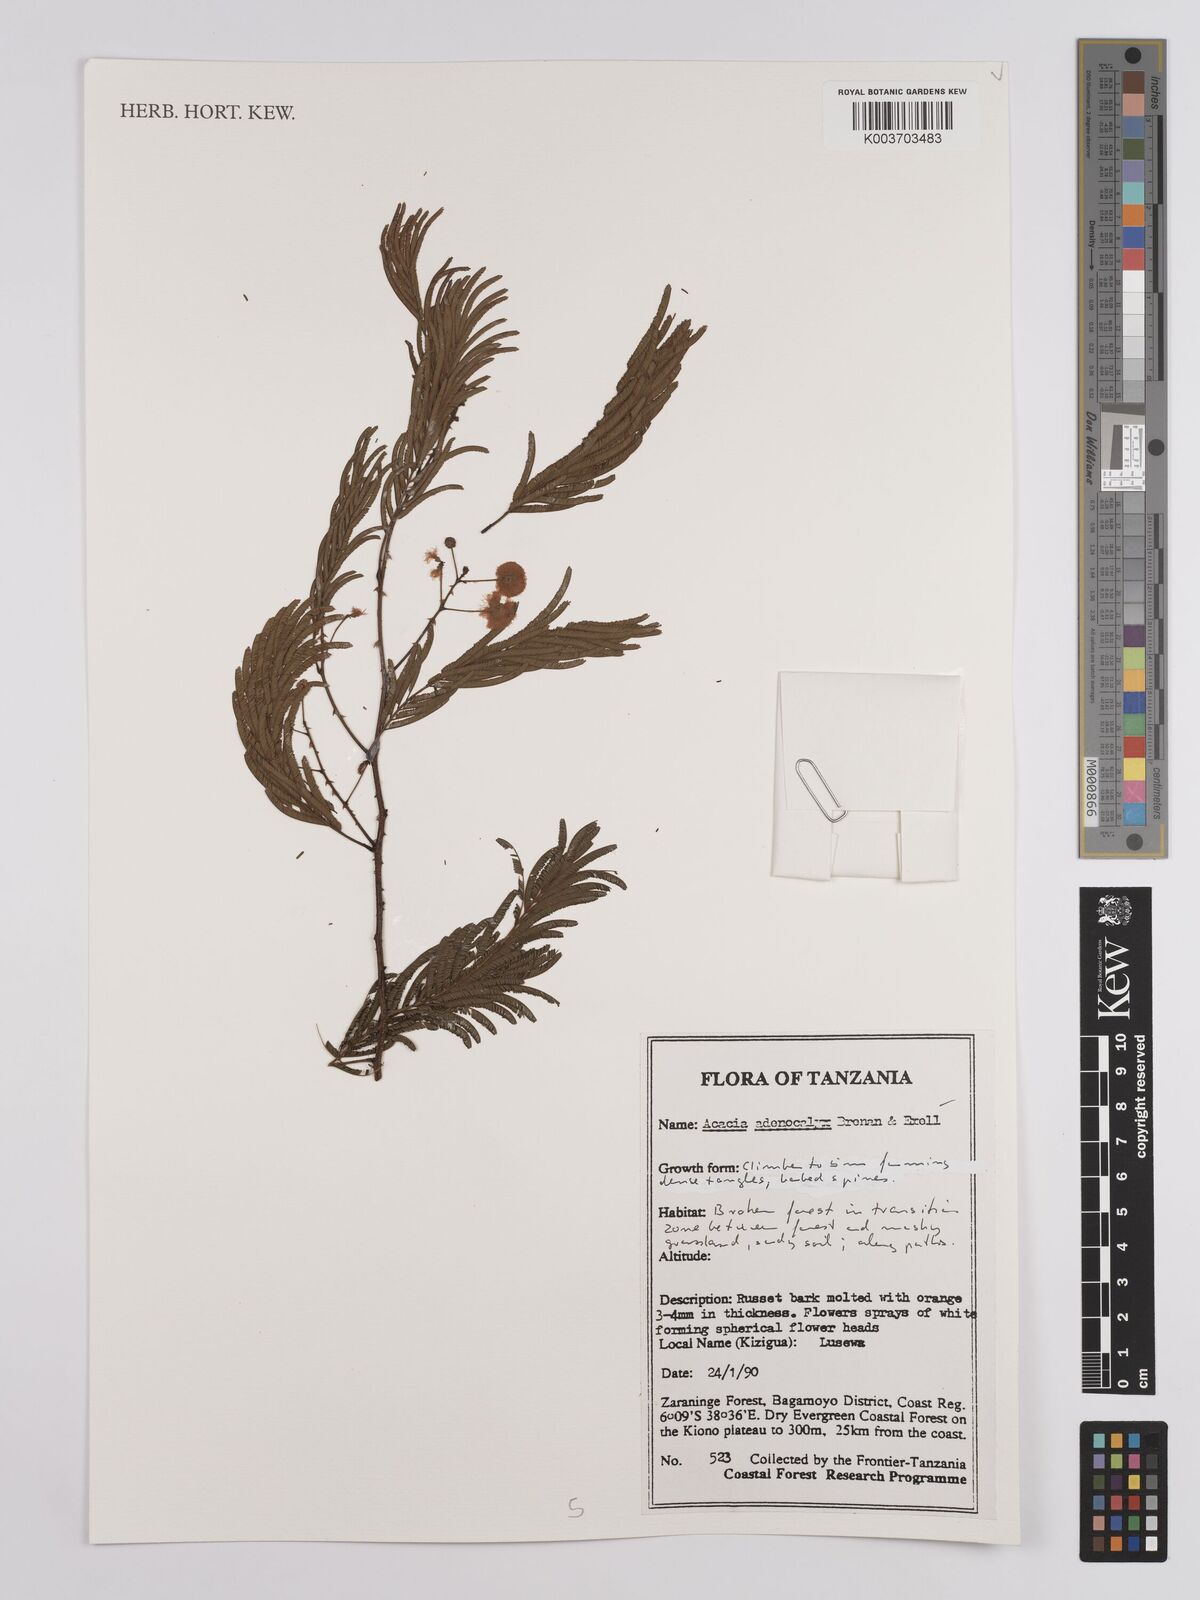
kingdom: Plantae
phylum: Tracheophyta
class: Magnoliopsida
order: Fabales
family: Fabaceae
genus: Senegalia
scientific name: Senegalia adenocalyx
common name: Pfurura
